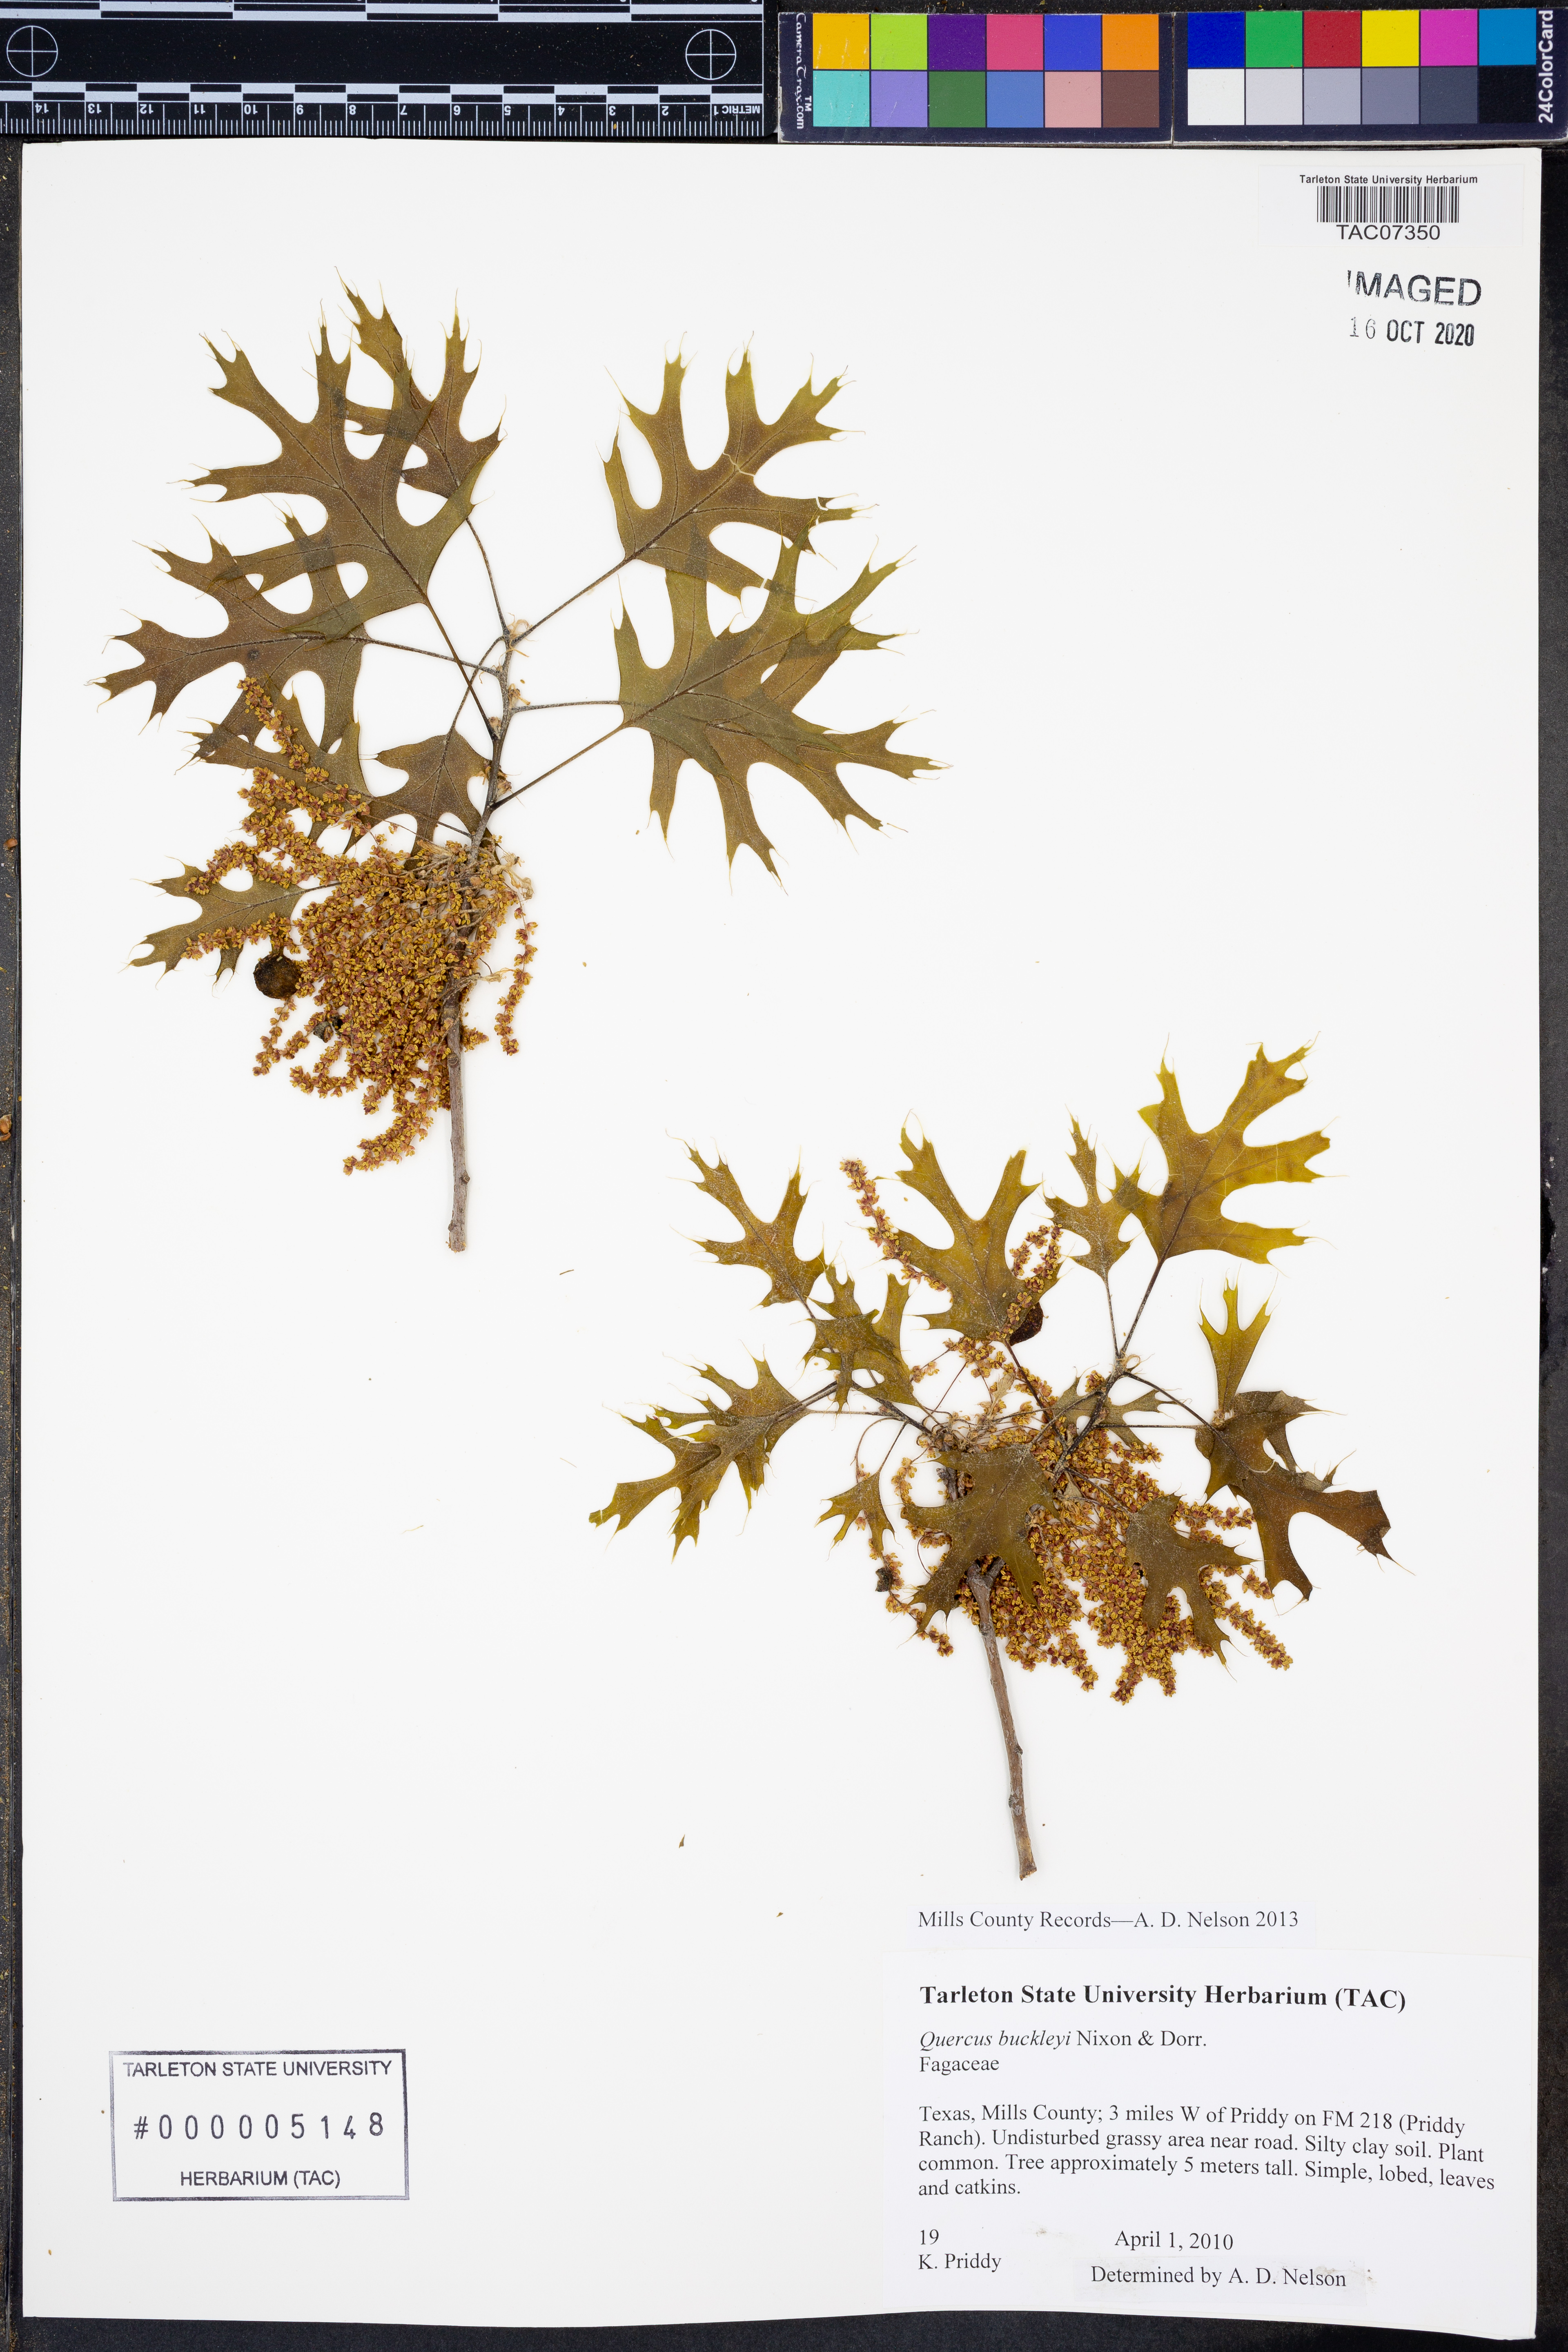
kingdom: Plantae
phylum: Tracheophyta
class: Magnoliopsida
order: Fagales
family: Fagaceae
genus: Quercus
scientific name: Quercus buckleyi
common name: Buckley oak
